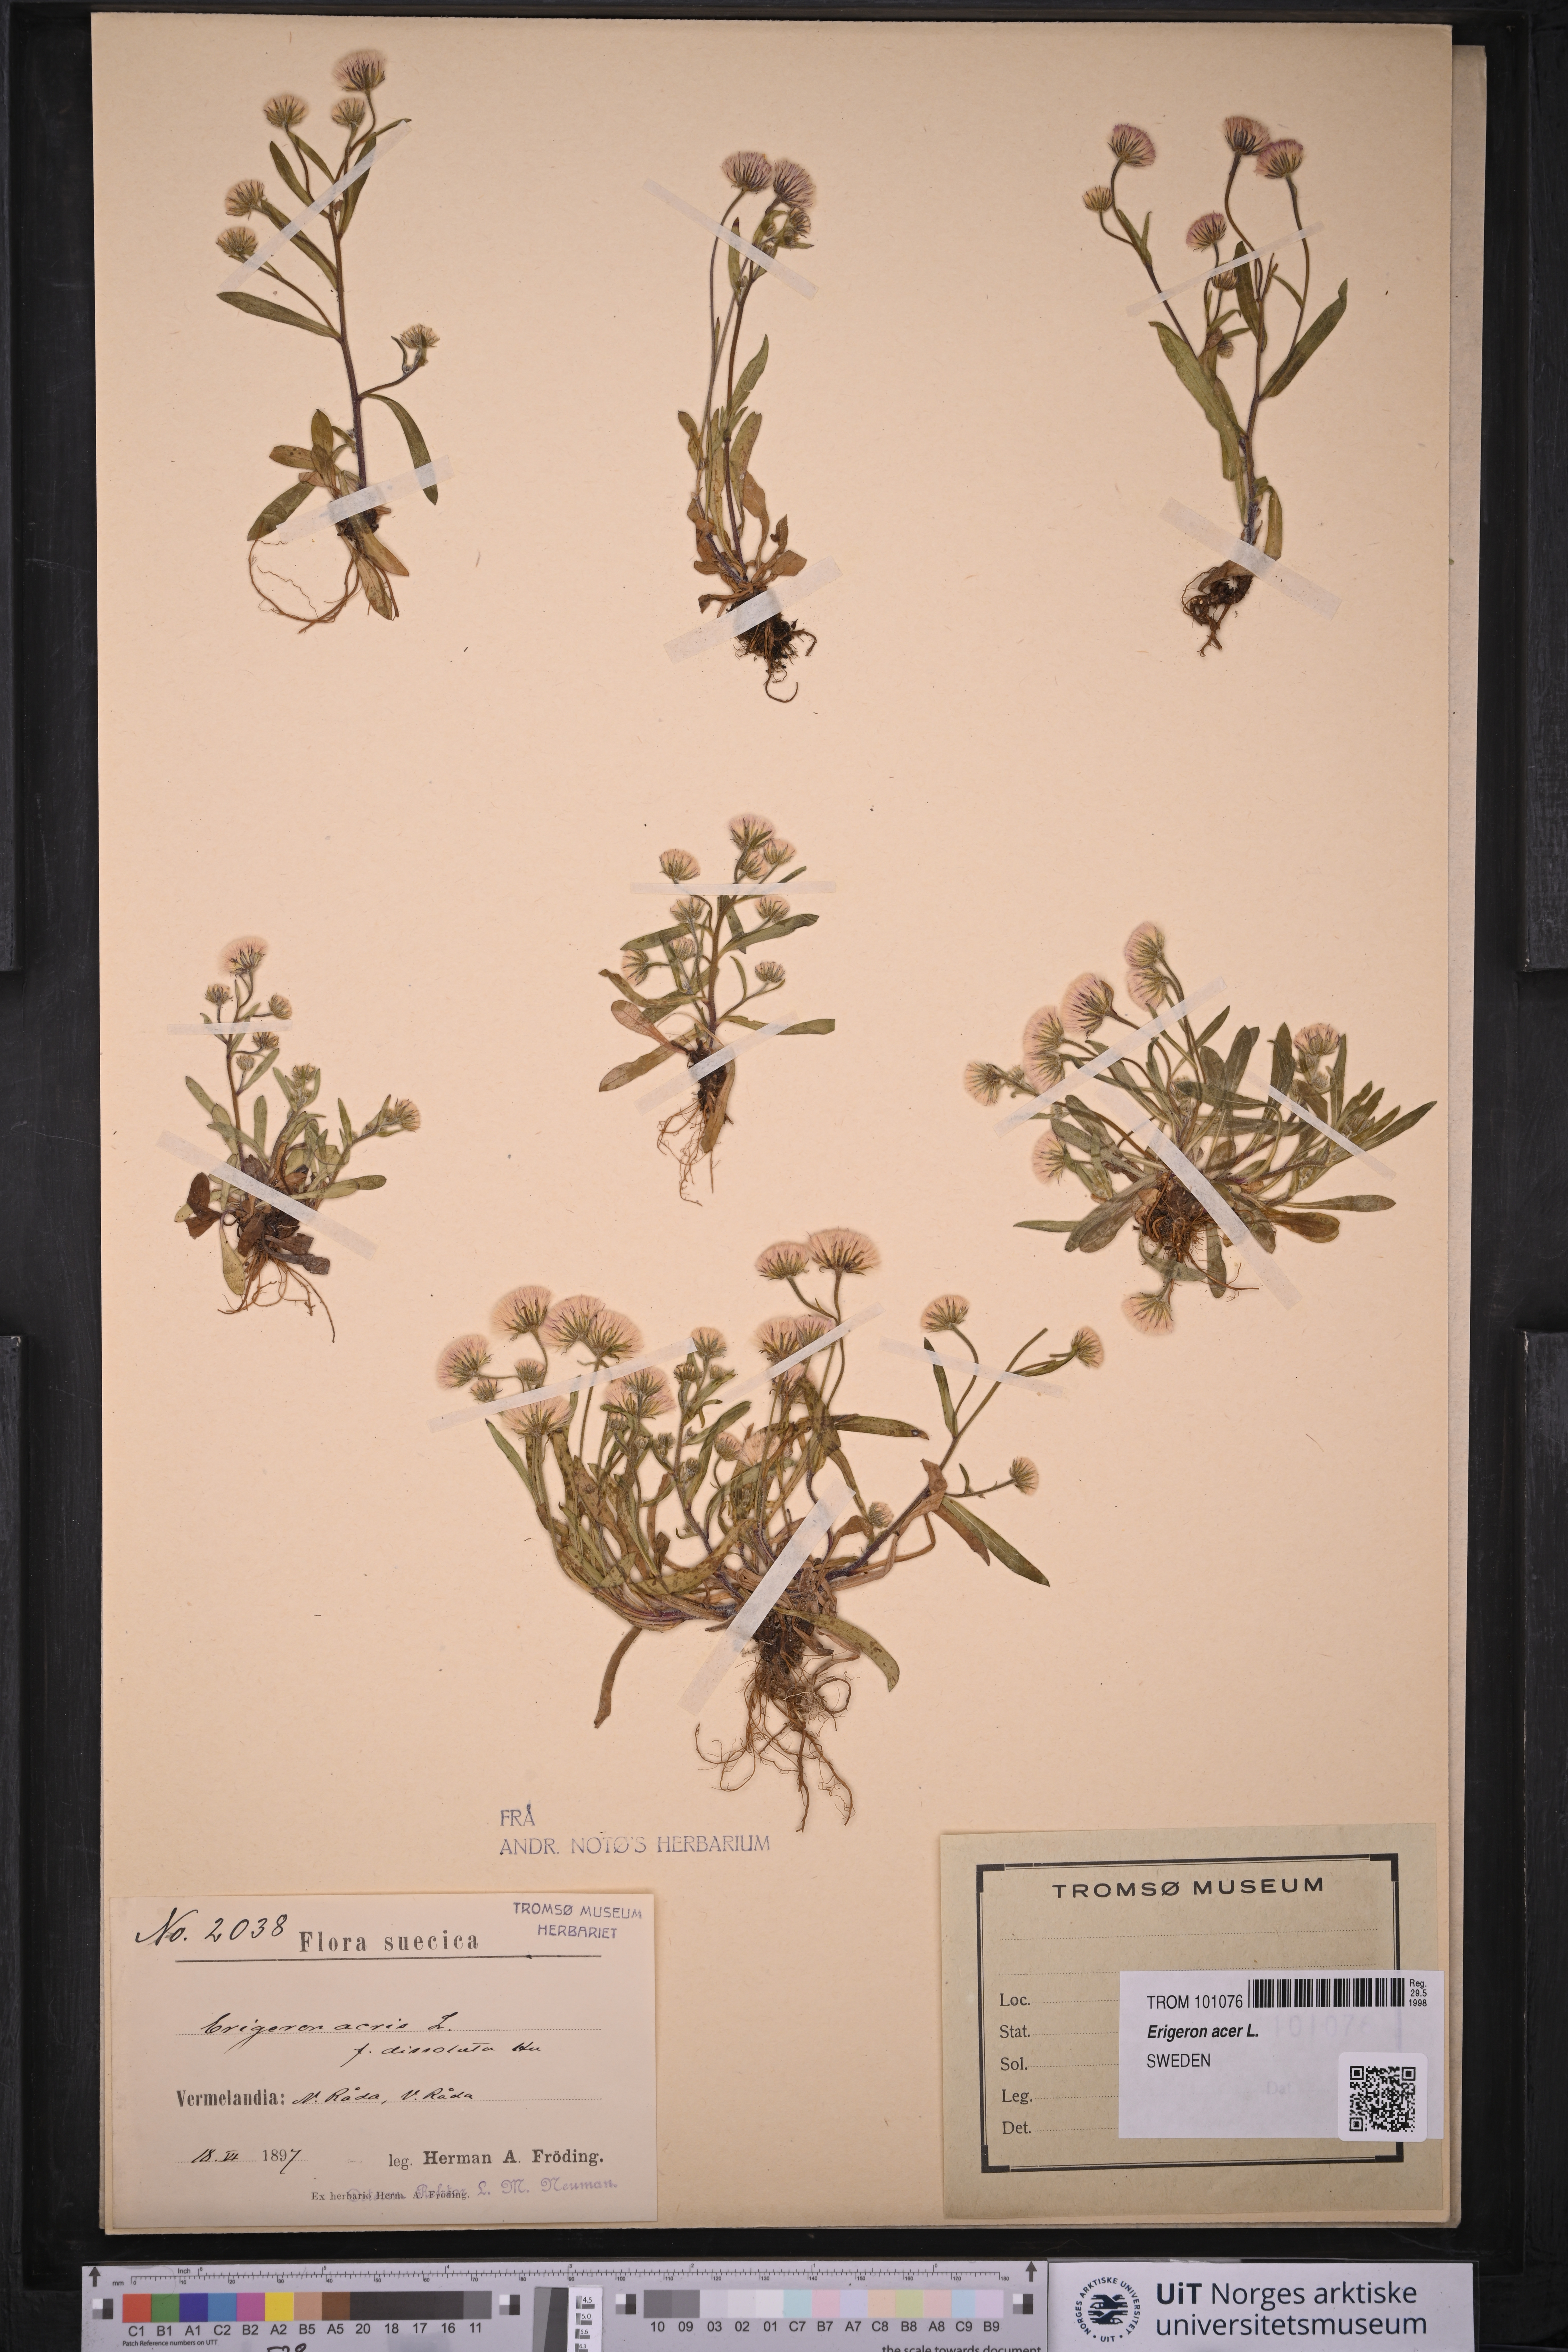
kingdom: Plantae
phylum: Tracheophyta
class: Magnoliopsida
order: Asterales
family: Asteraceae
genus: Erigeron
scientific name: Erigeron acris
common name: Blue fleabane
